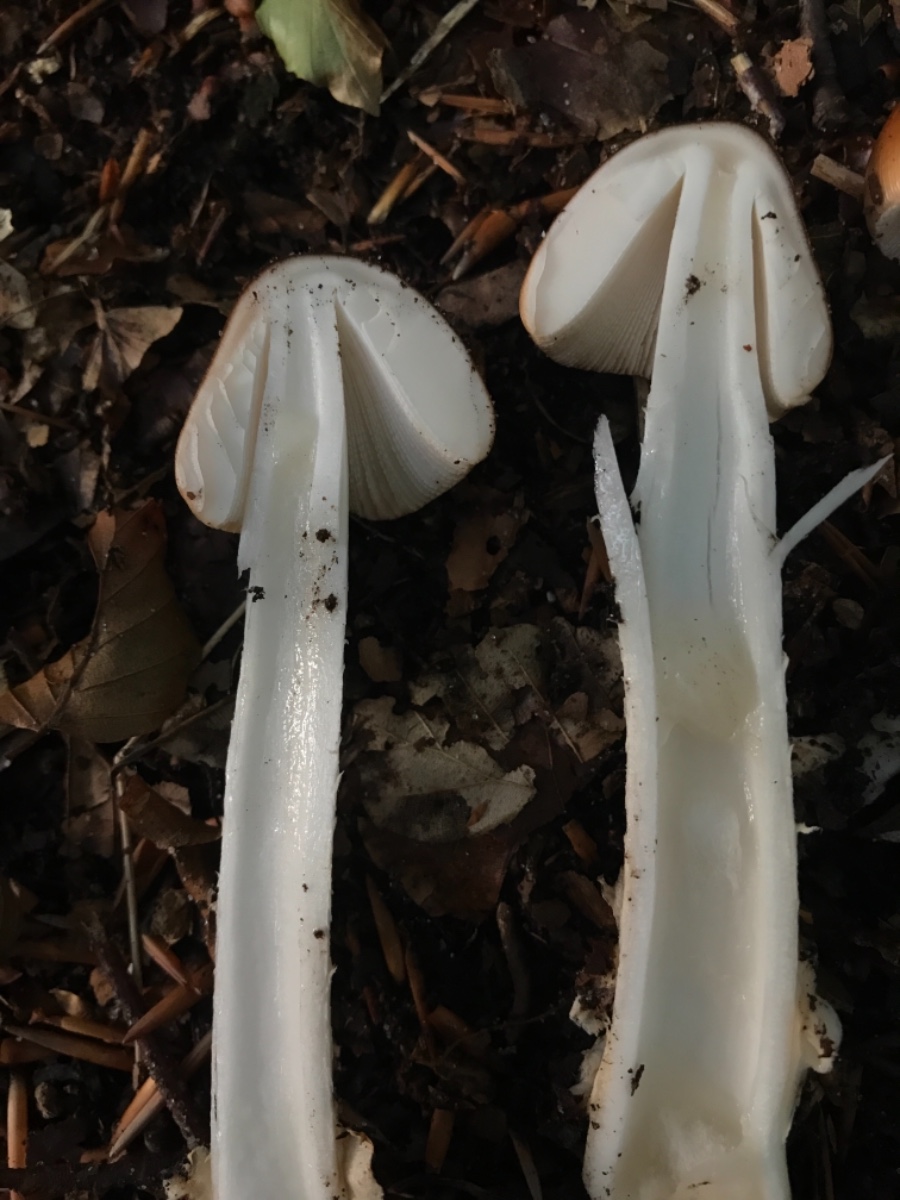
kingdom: Fungi
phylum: Basidiomycota
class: Agaricomycetes
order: Agaricales
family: Amanitaceae
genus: Amanita
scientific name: Amanita fulva
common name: brun kam-fluesvamp
